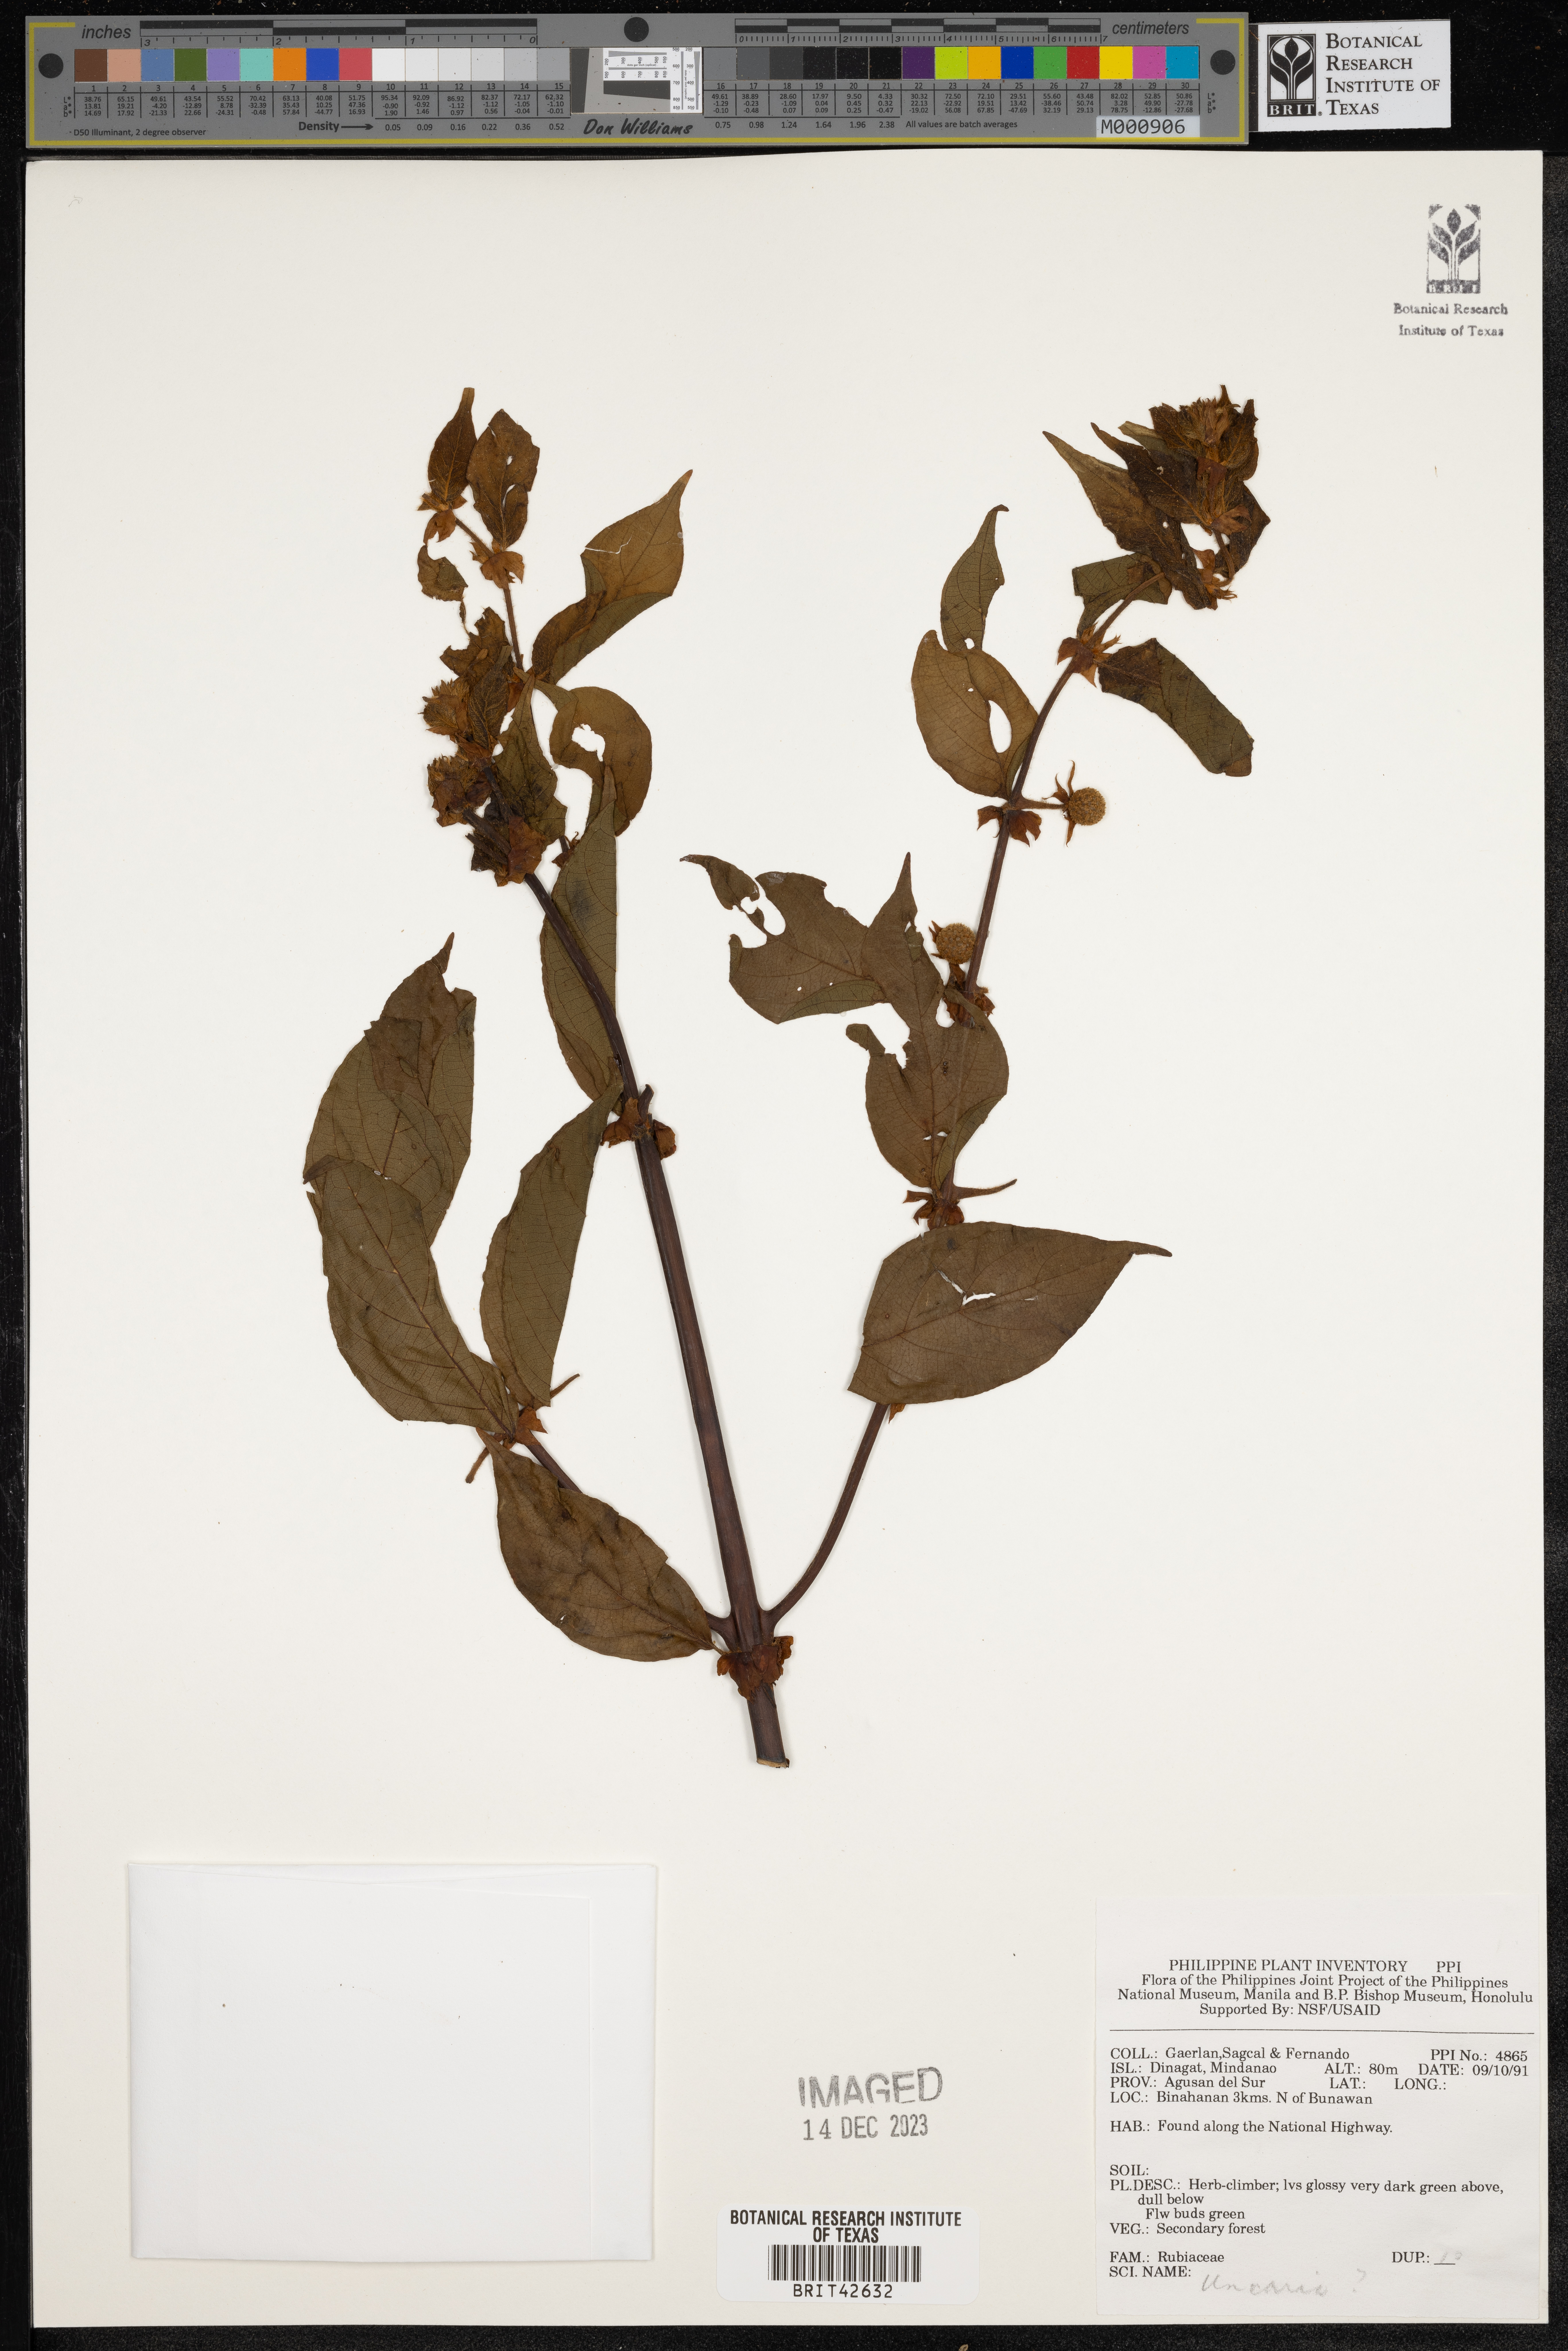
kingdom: Plantae
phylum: Tracheophyta
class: Magnoliopsida
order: Gentianales
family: Rubiaceae
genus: Uncaria
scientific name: Uncaria
